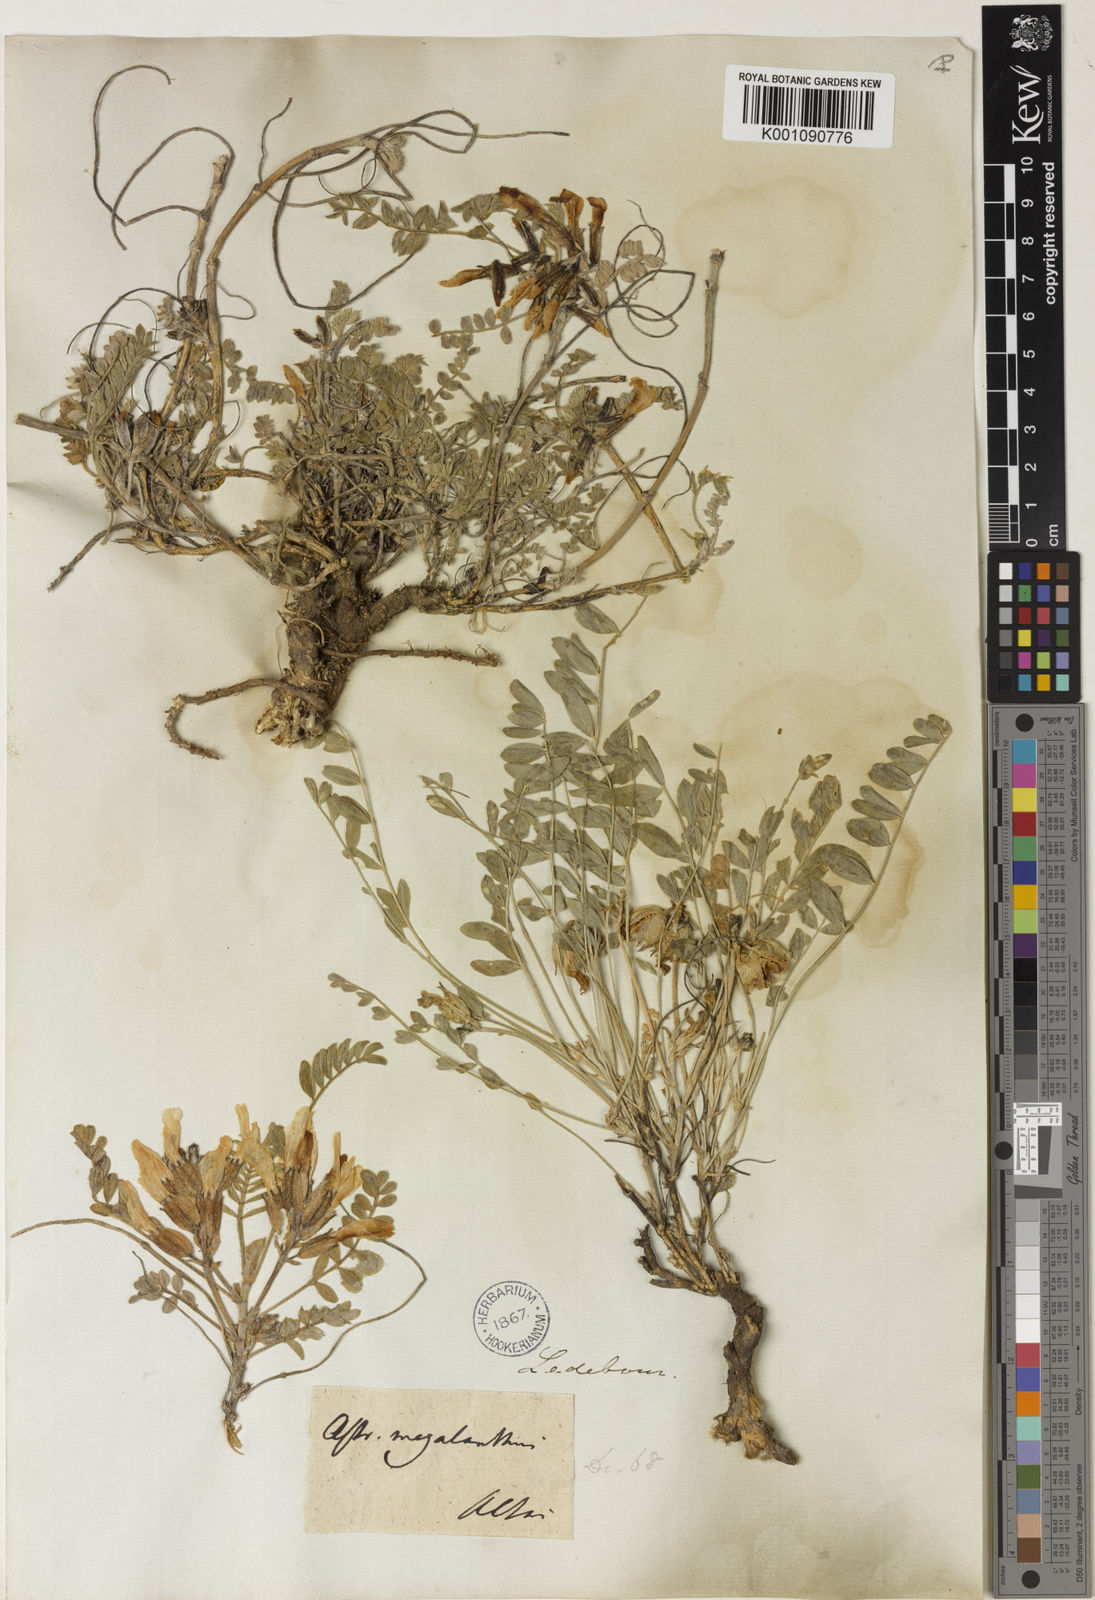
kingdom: Plantae
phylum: Tracheophyta
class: Magnoliopsida
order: Fabales
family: Fabaceae
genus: Astragalus
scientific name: Astragalus
